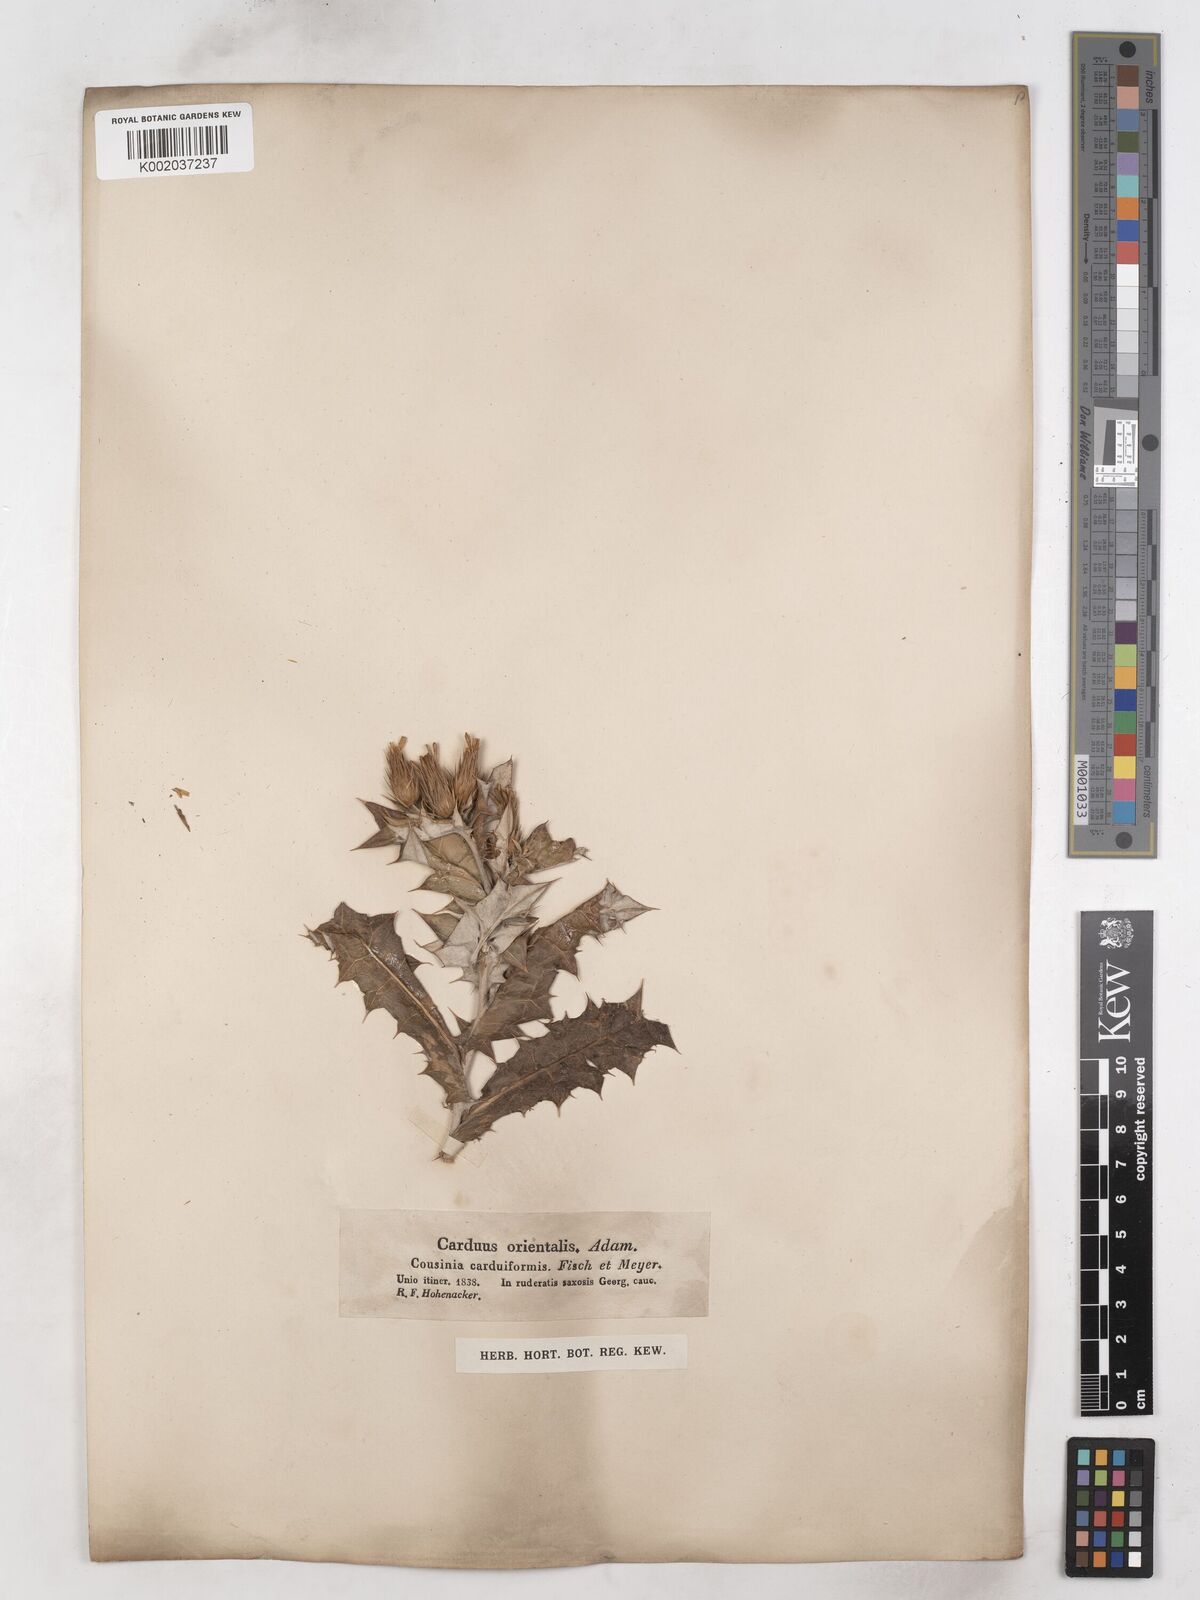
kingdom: Plantae
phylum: Tracheophyta
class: Magnoliopsida
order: Asterales
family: Asteraceae
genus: Cousinia
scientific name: Cousinia
